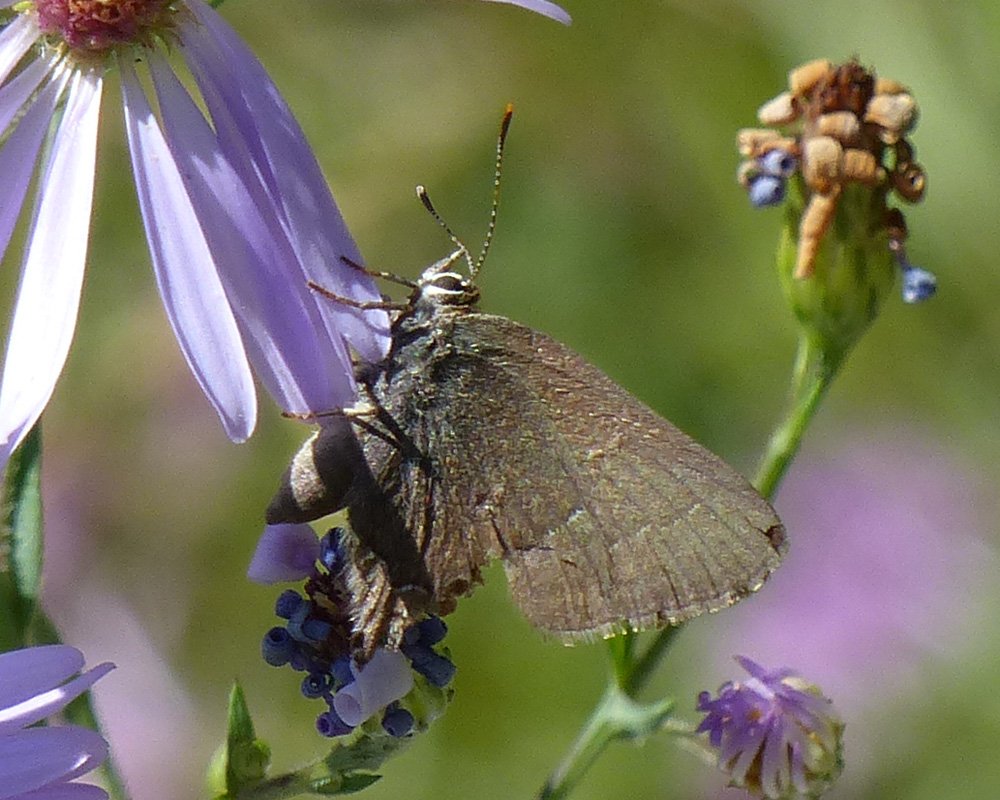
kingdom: Animalia
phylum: Arthropoda
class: Insecta
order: Lepidoptera
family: Lycaenidae
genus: Strymon
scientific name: Strymon saepium
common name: Hedgerow Hairstreak
